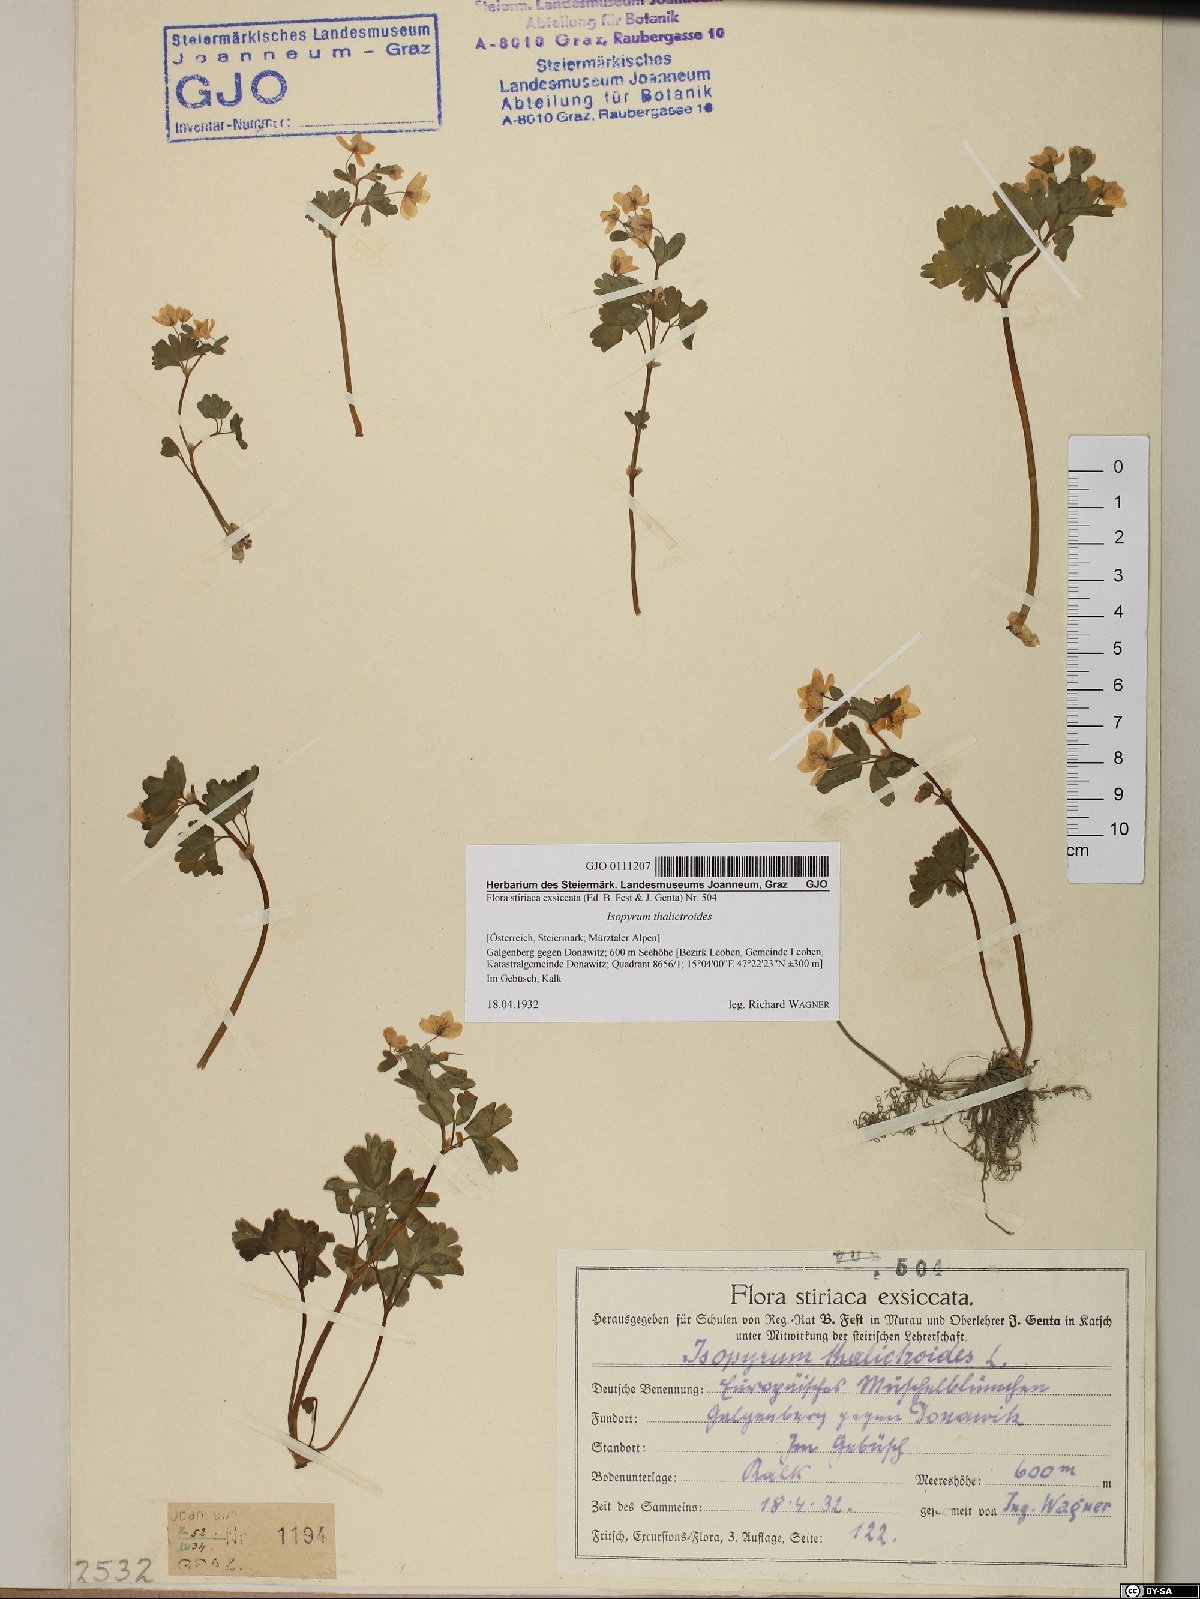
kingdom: Plantae
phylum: Tracheophyta
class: Magnoliopsida
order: Ranunculales
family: Ranunculaceae
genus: Isopyrum
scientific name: Isopyrum thalictroides
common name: Isopyrum
